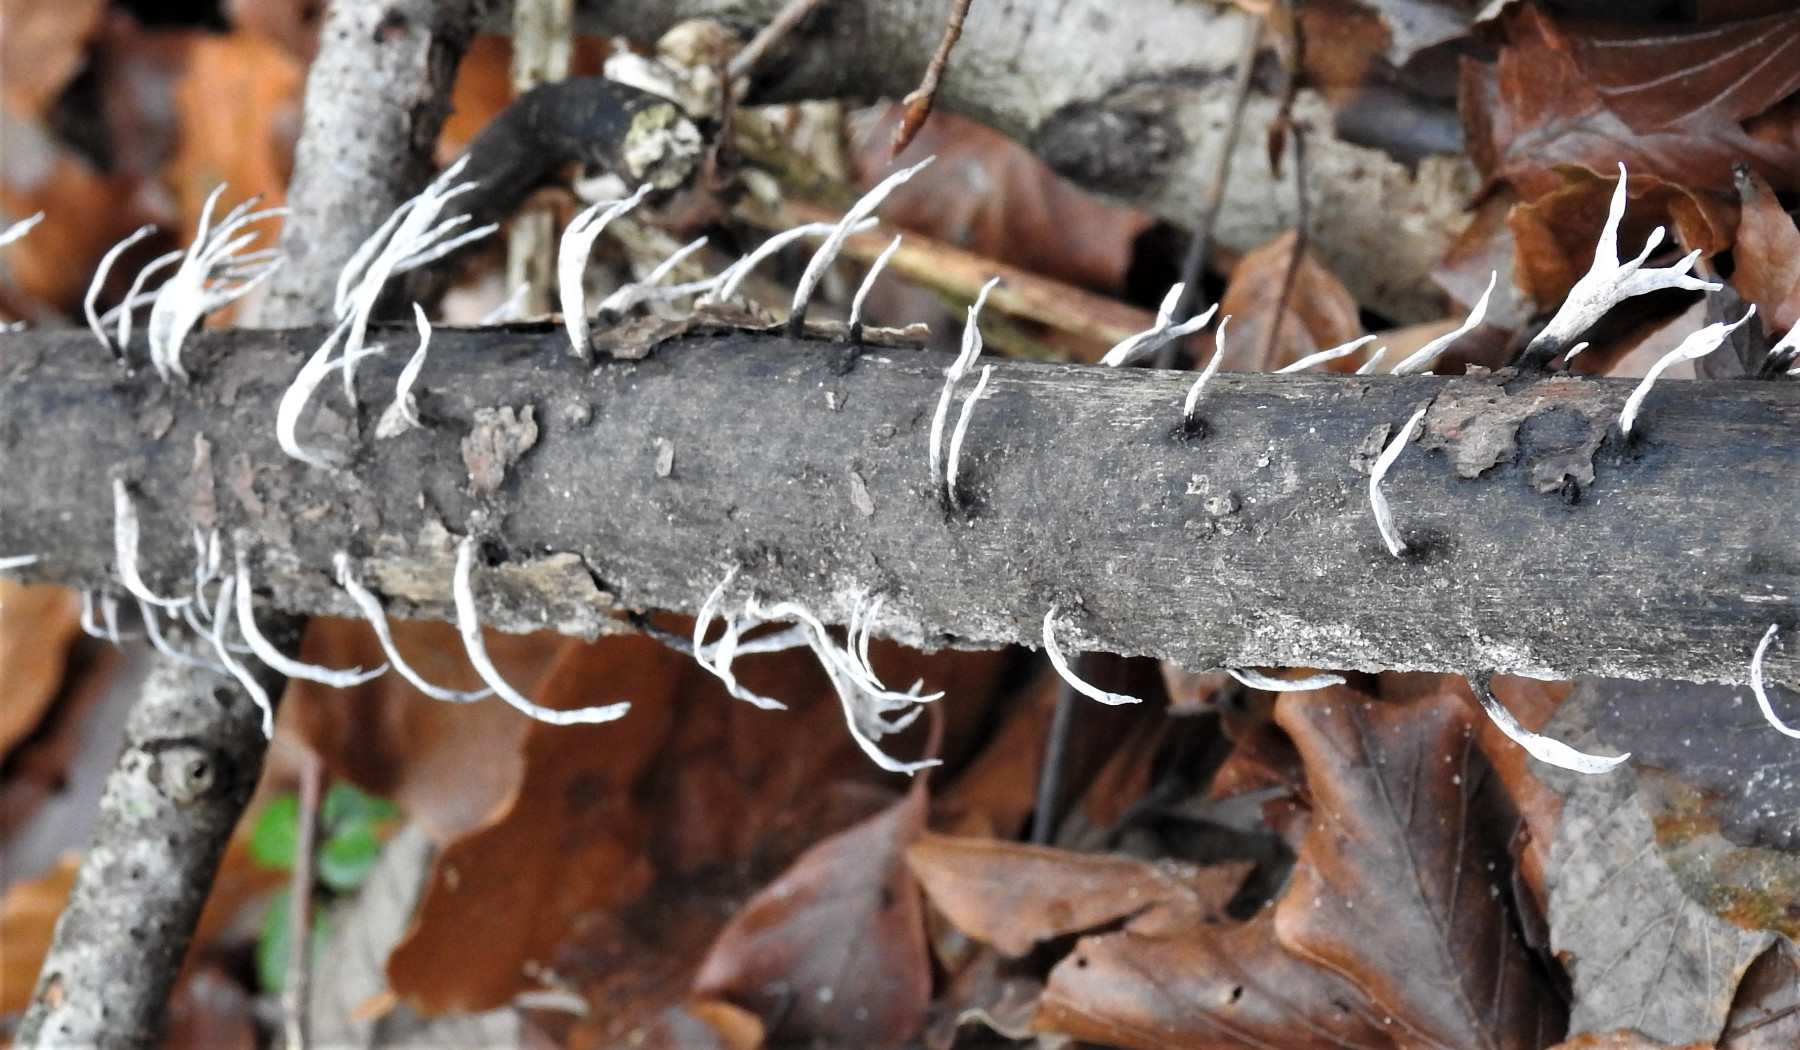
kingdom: Fungi
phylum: Ascomycota
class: Sordariomycetes
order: Xylariales
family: Xylariaceae
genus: Xylaria
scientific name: Xylaria hypoxylon
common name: grenet stødsvamp
